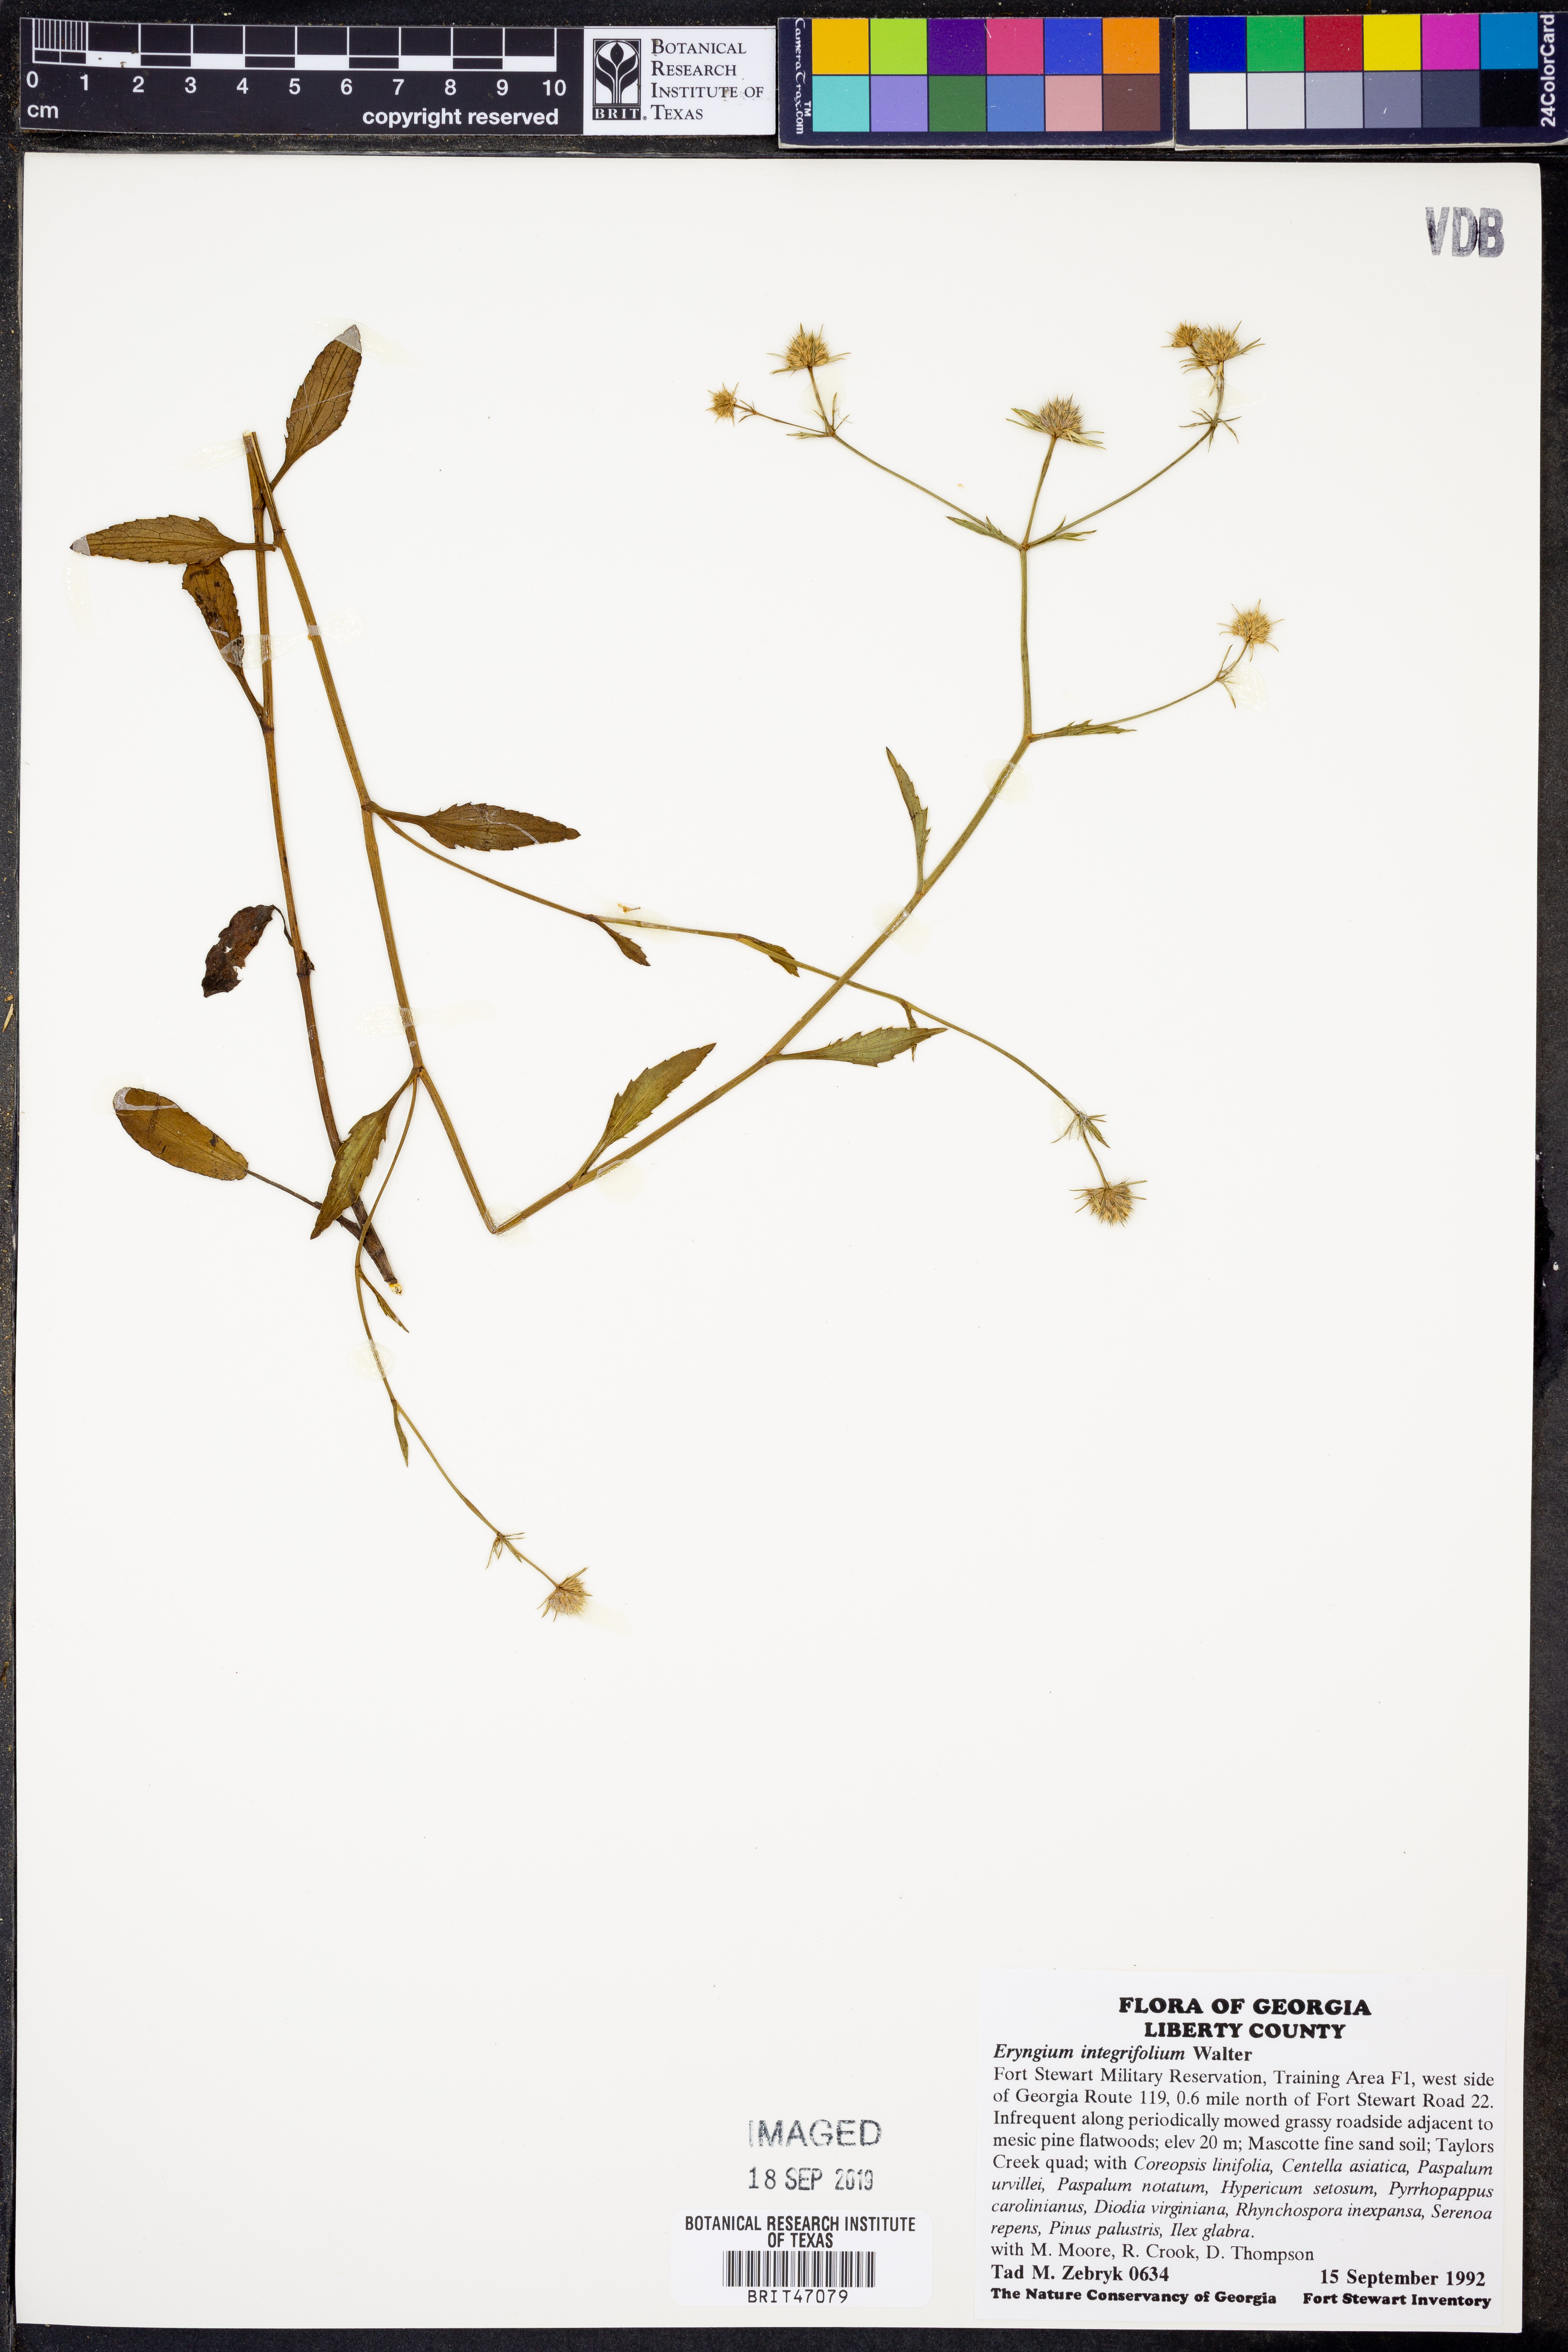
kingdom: Plantae
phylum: Tracheophyta
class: Magnoliopsida
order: Apiales
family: Apiaceae
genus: Eryngium
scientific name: Eryngium integrifolium
